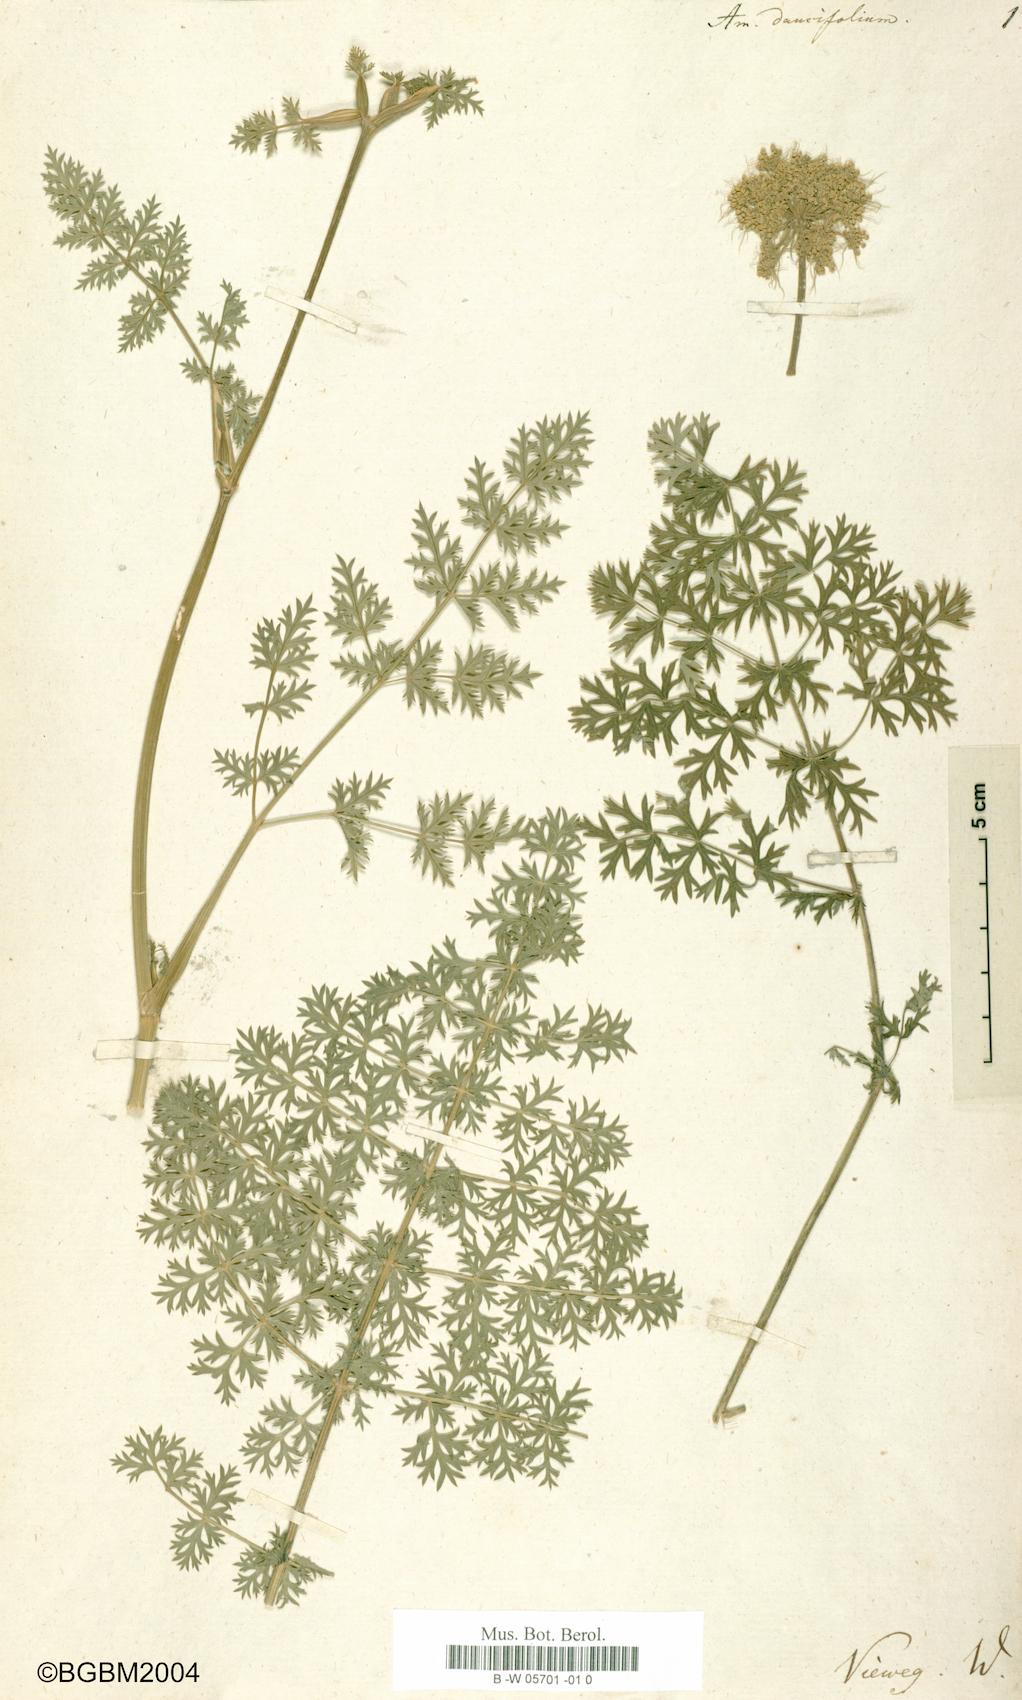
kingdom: Plantae
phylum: Tracheophyta
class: Magnoliopsida
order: Apiales
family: Apiaceae
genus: Seseli
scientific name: Seseli libanotis
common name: Mooncarrot
